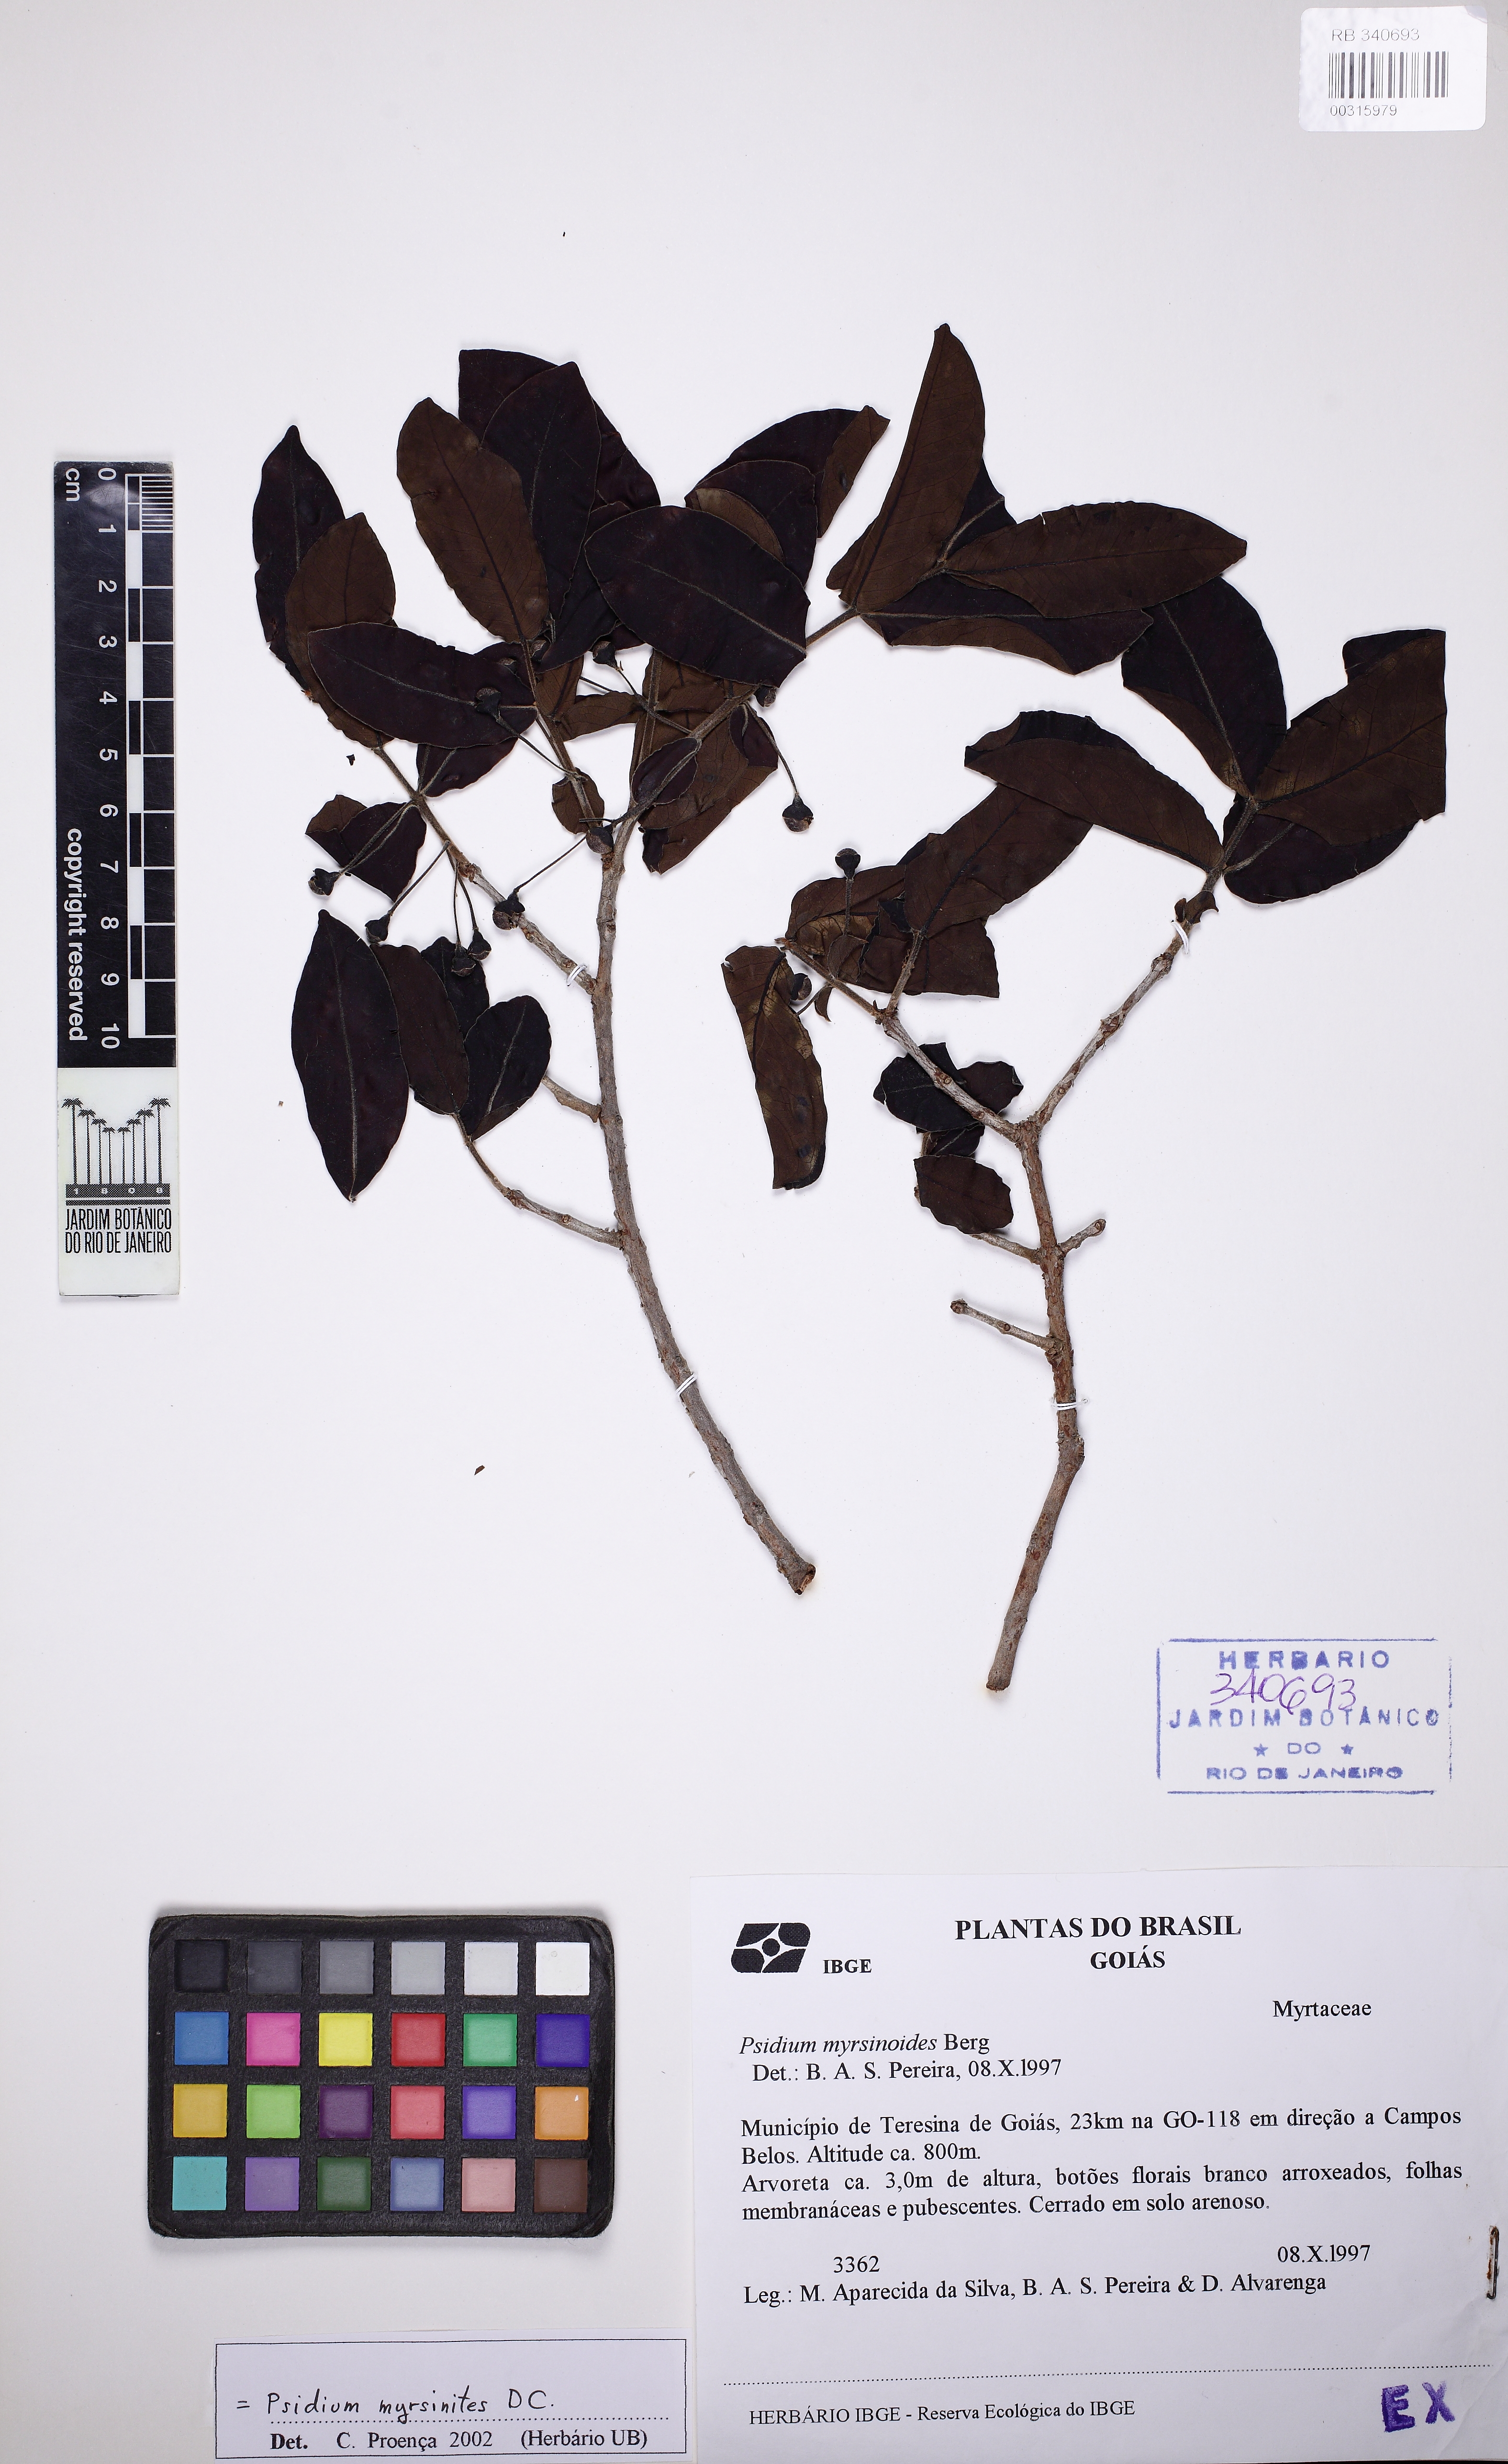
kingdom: Plantae
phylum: Tracheophyta
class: Magnoliopsida
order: Myrtales
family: Myrtaceae
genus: Psidium
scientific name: Psidium myrtoides
